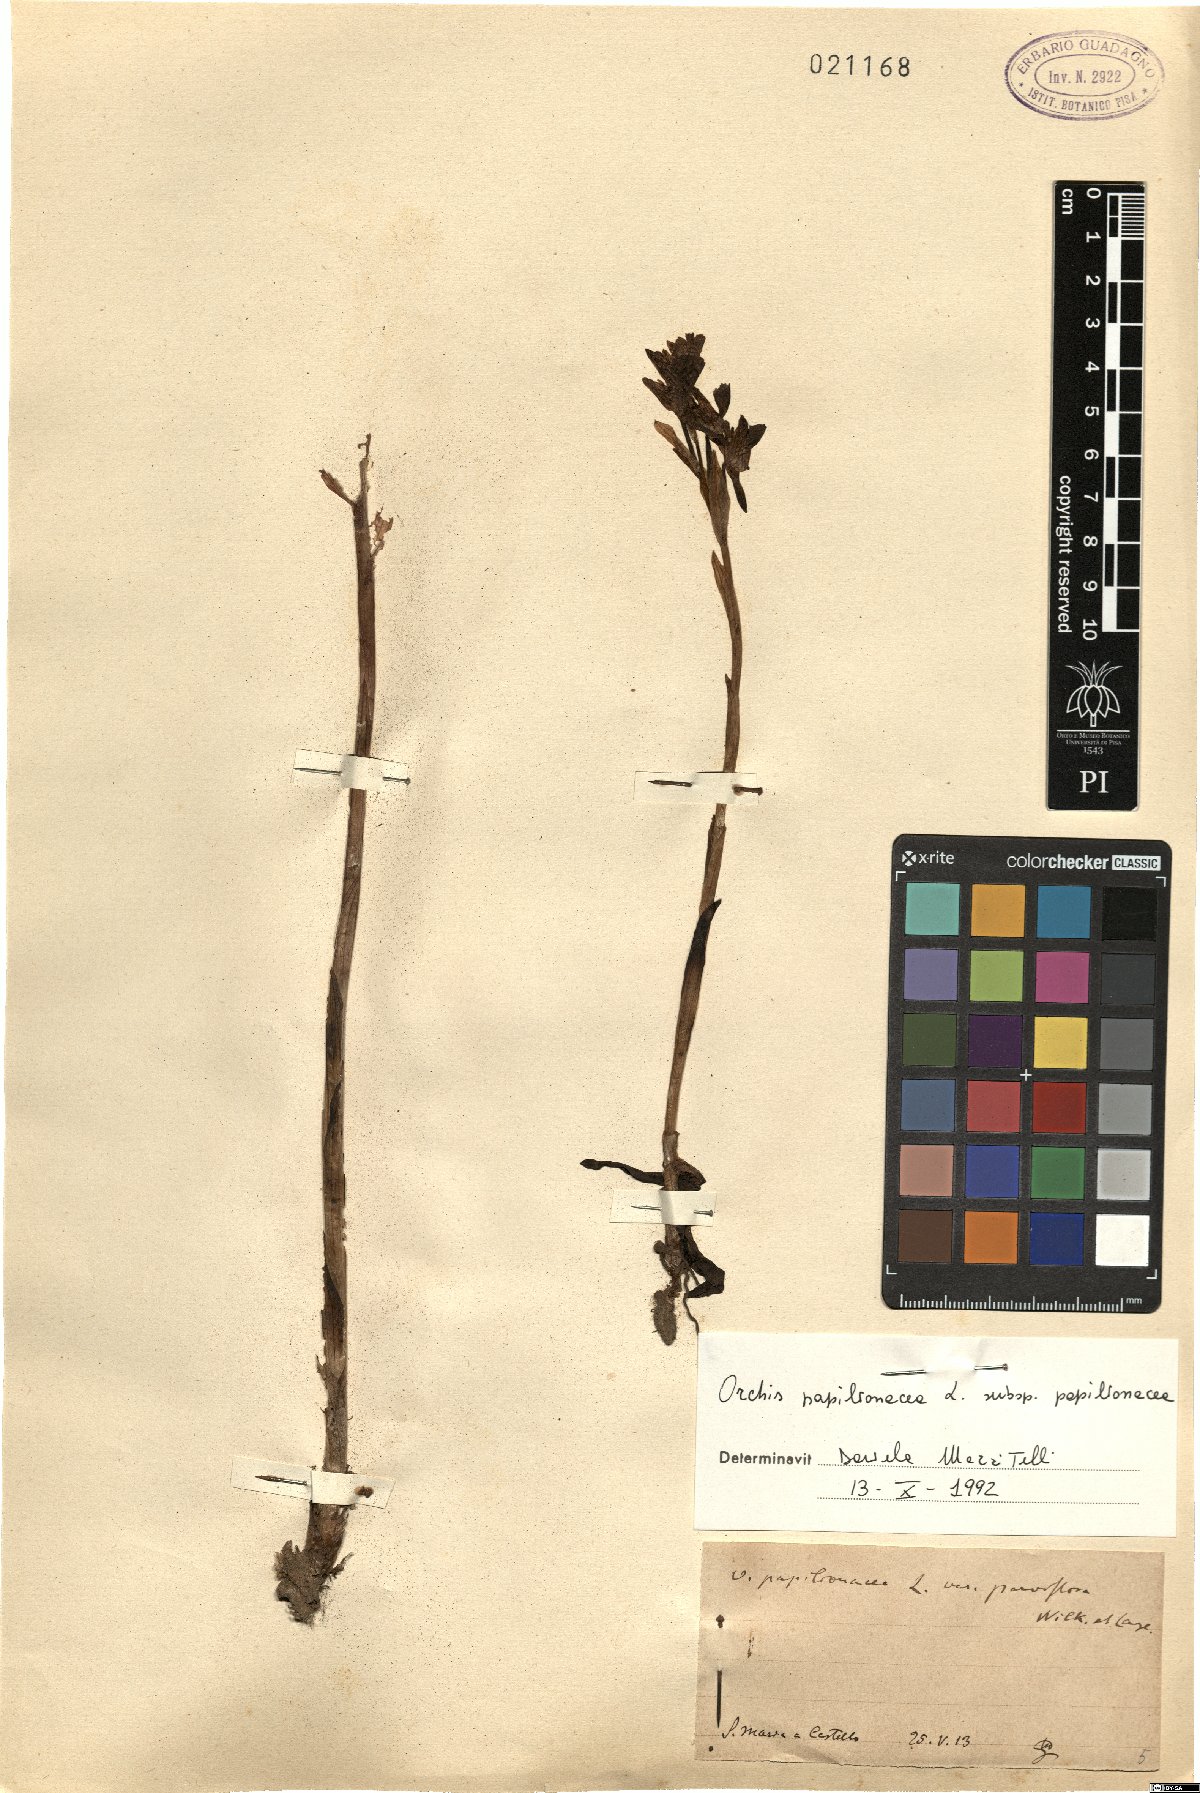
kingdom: Plantae
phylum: Tracheophyta
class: Liliopsida
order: Asparagales
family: Orchidaceae
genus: Anacamptis
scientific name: Anacamptis papilionacea
